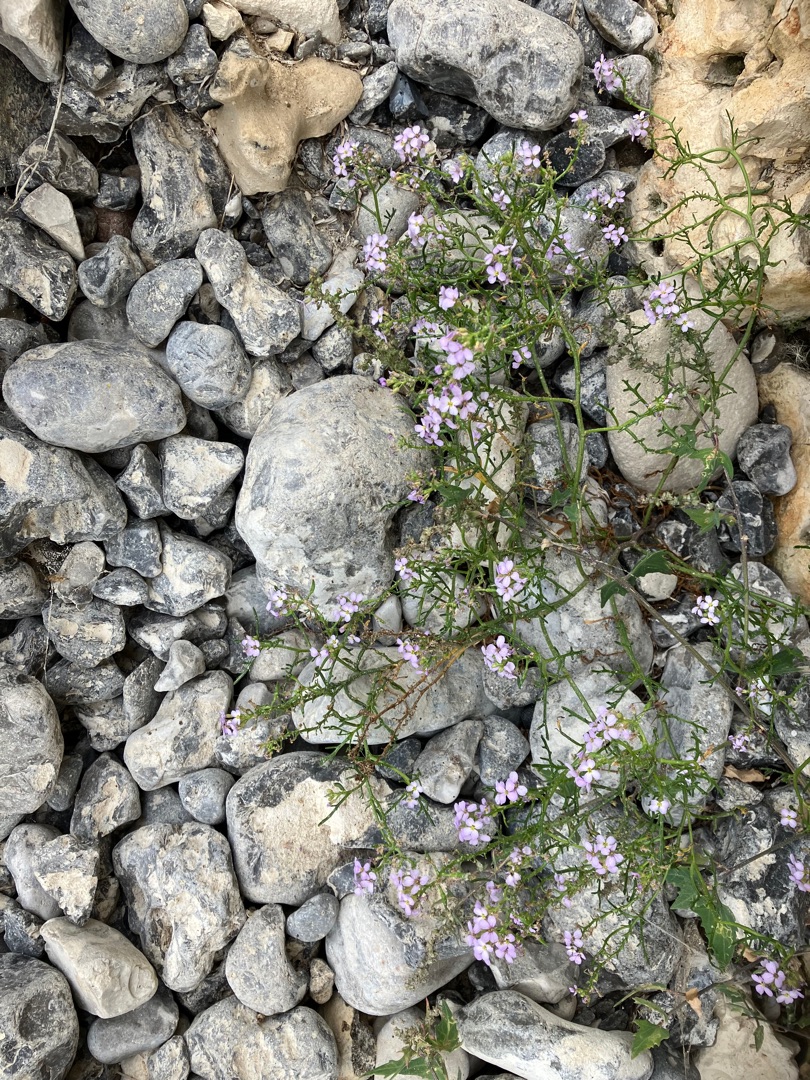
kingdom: Plantae
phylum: Tracheophyta
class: Magnoliopsida
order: Brassicales
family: Brassicaceae
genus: Cakile
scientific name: Cakile maritima
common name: Strandsennep
